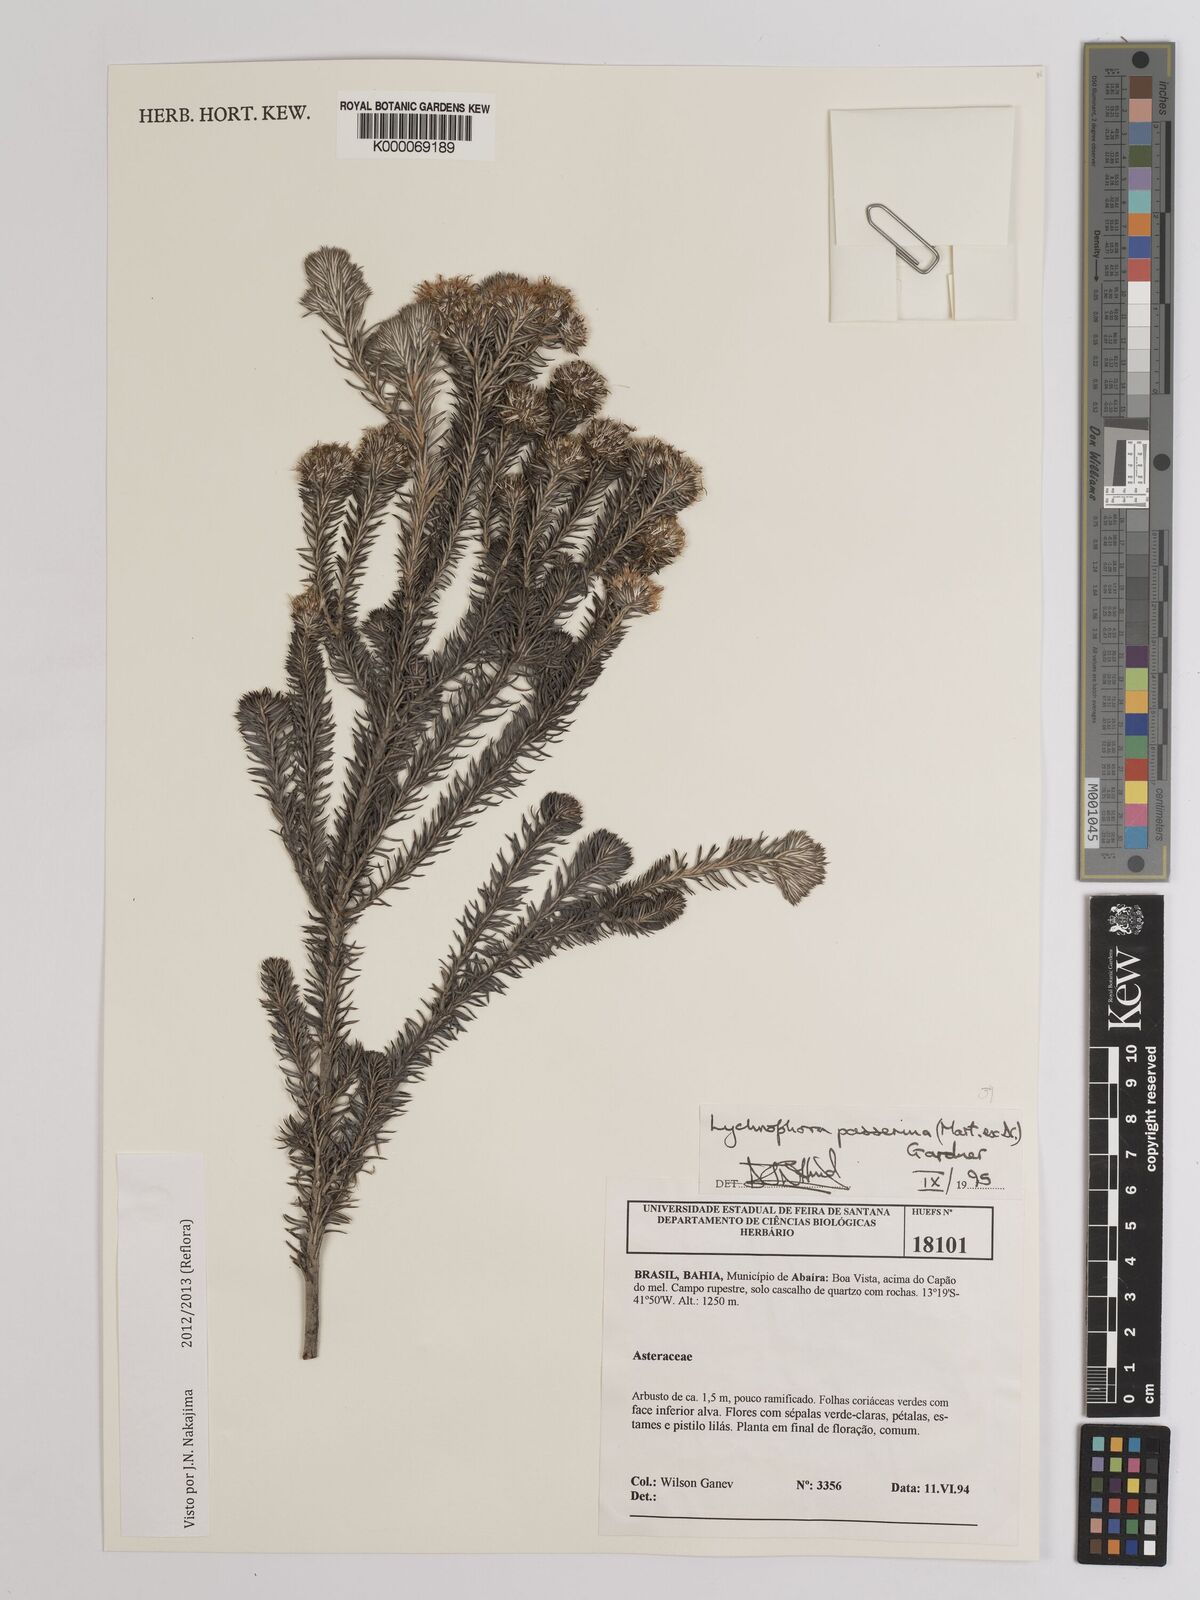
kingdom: Plantae
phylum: Tracheophyta
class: Magnoliopsida
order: Asterales
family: Asteraceae
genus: Lychnophora
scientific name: Lychnophora passerina
